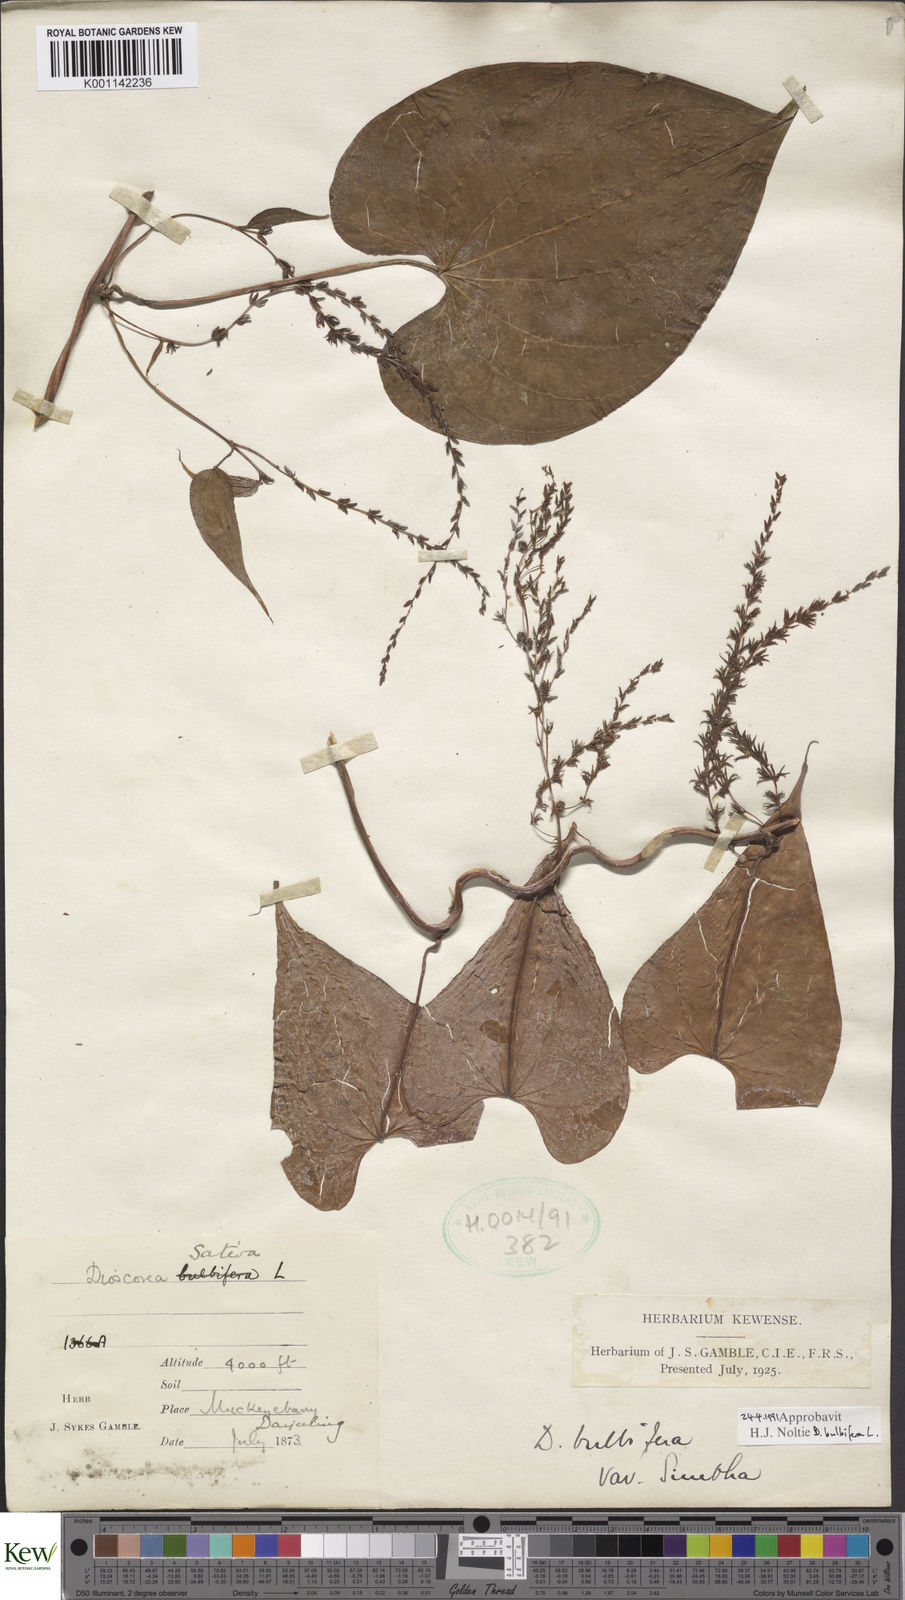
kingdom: Plantae
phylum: Tracheophyta
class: Liliopsida
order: Dioscoreales
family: Dioscoreaceae
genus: Dioscorea
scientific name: Dioscorea bulbifera
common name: Air yam
